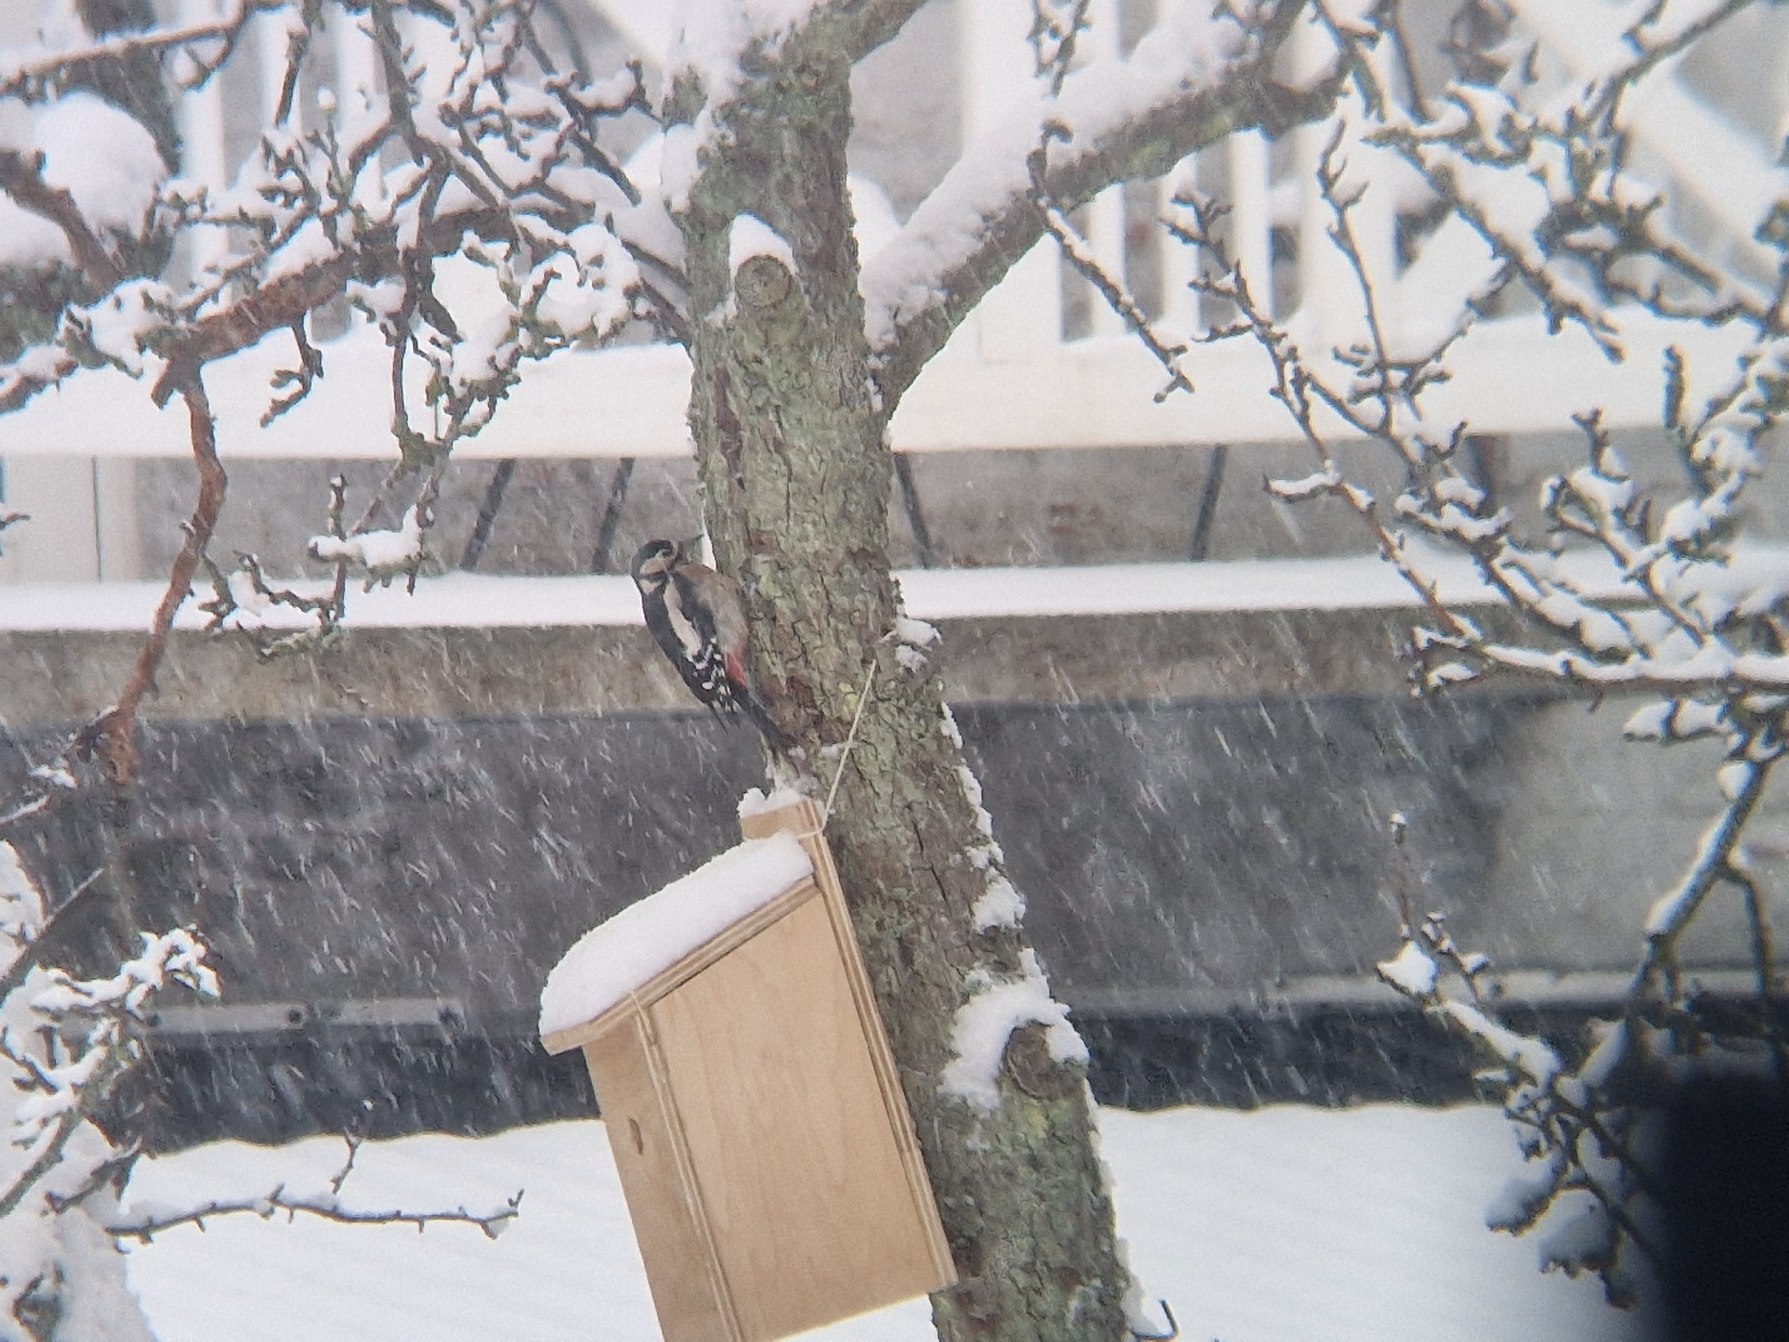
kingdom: Animalia
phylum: Chordata
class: Aves
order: Piciformes
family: Picidae
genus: Dendrocopos
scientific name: Dendrocopos major
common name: Stor flagspætte
